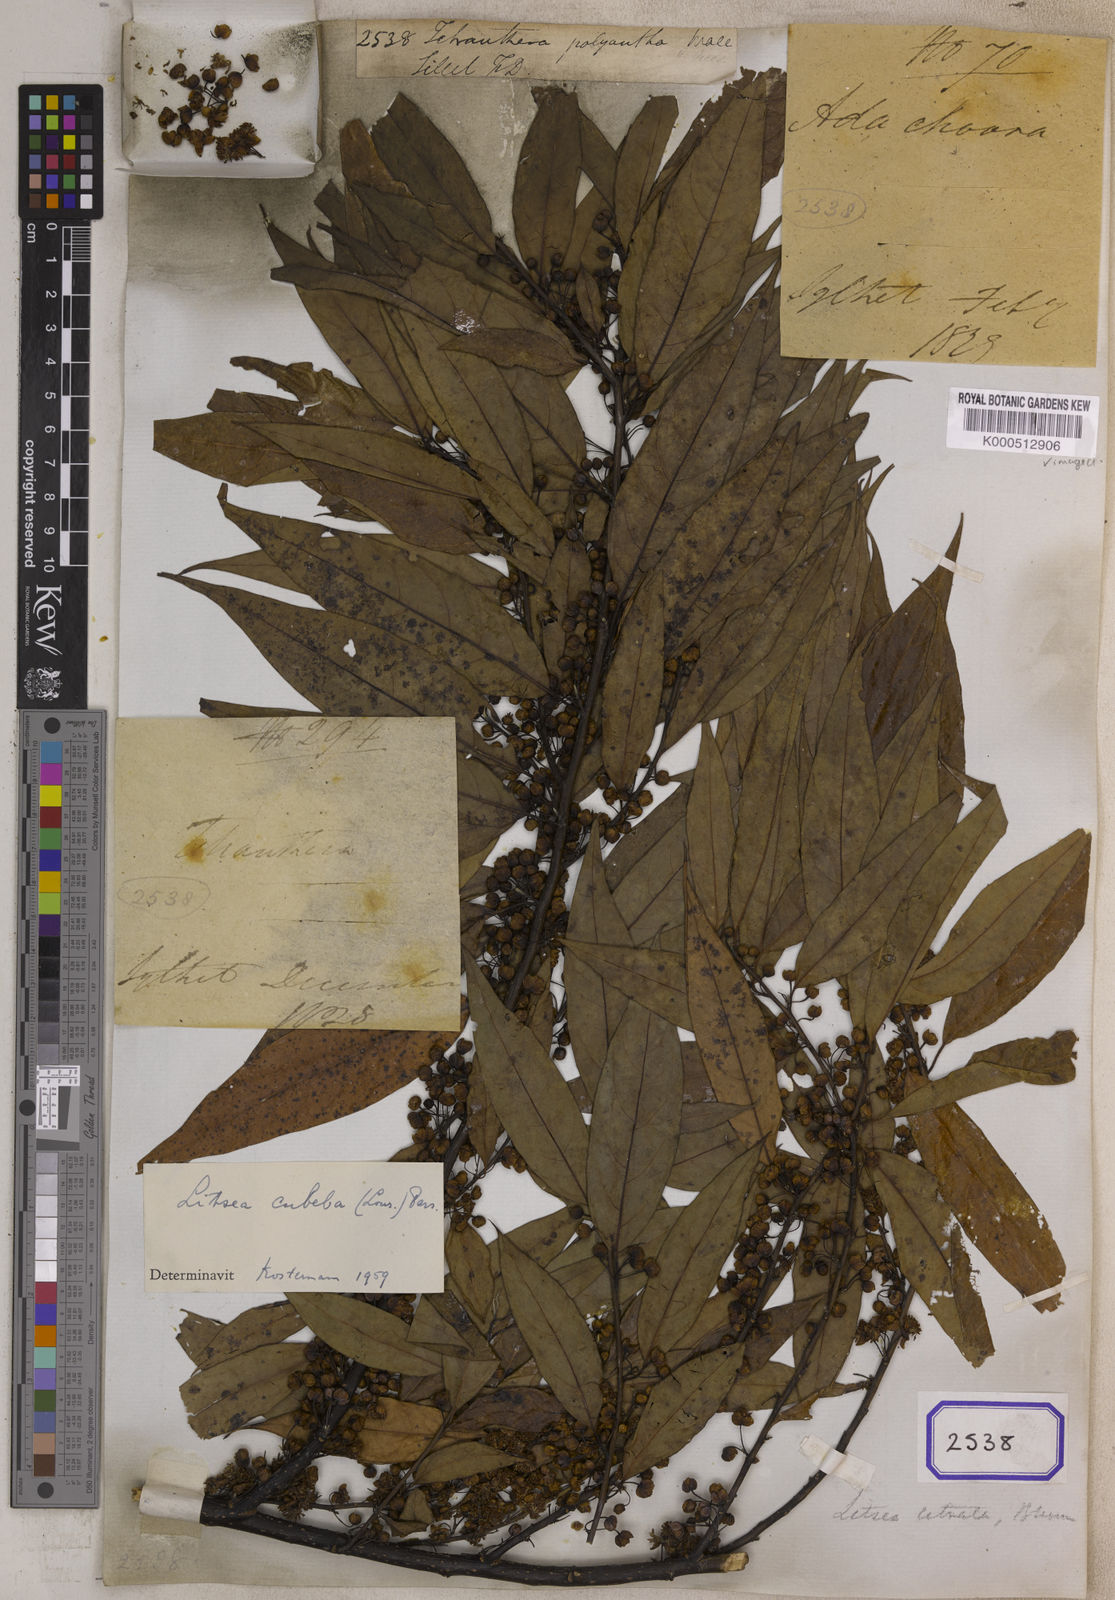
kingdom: Plantae
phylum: Tracheophyta
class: Magnoliopsida
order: Laurales
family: Lauraceae
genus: Litsea
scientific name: Litsea sericea
